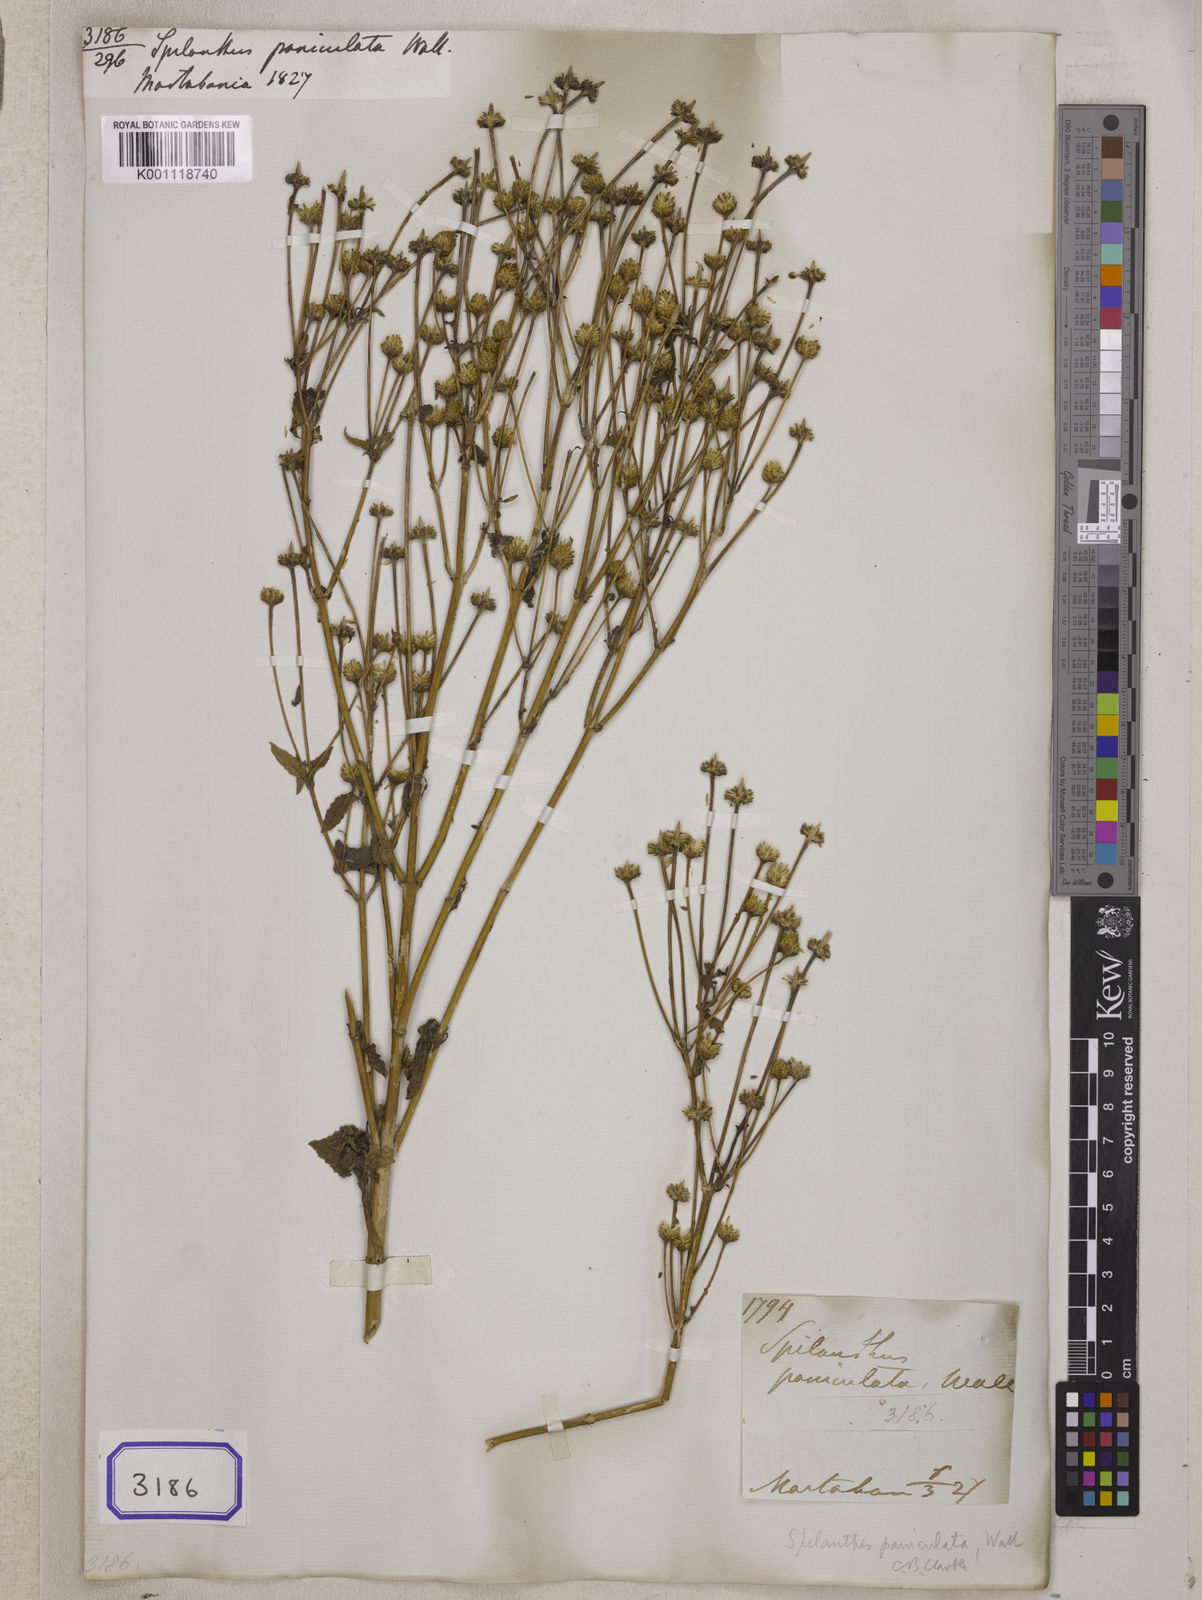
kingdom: Plantae
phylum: Tracheophyta
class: Magnoliopsida
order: Asterales
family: Asteraceae
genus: Spilanthes
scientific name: Spilanthes
